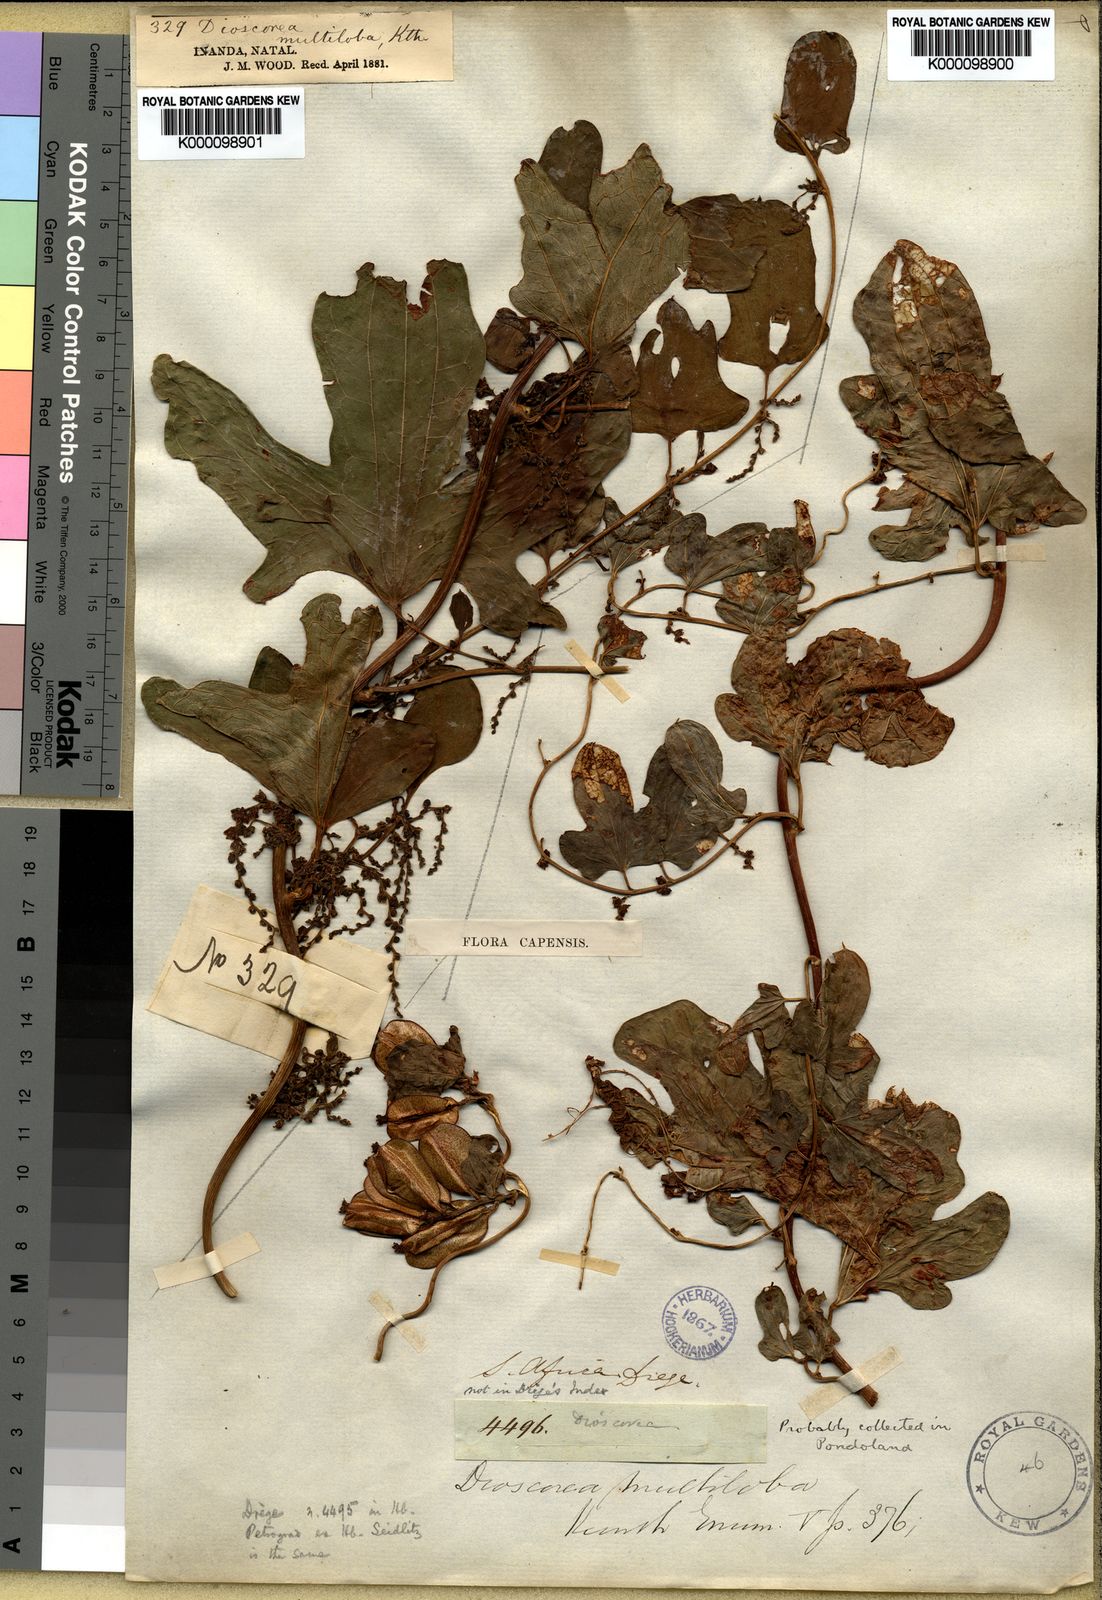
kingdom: Plantae
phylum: Tracheophyta
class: Liliopsida
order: Dioscoreales
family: Dioscoreaceae
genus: Dioscorea
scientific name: Dioscorea multiloba
